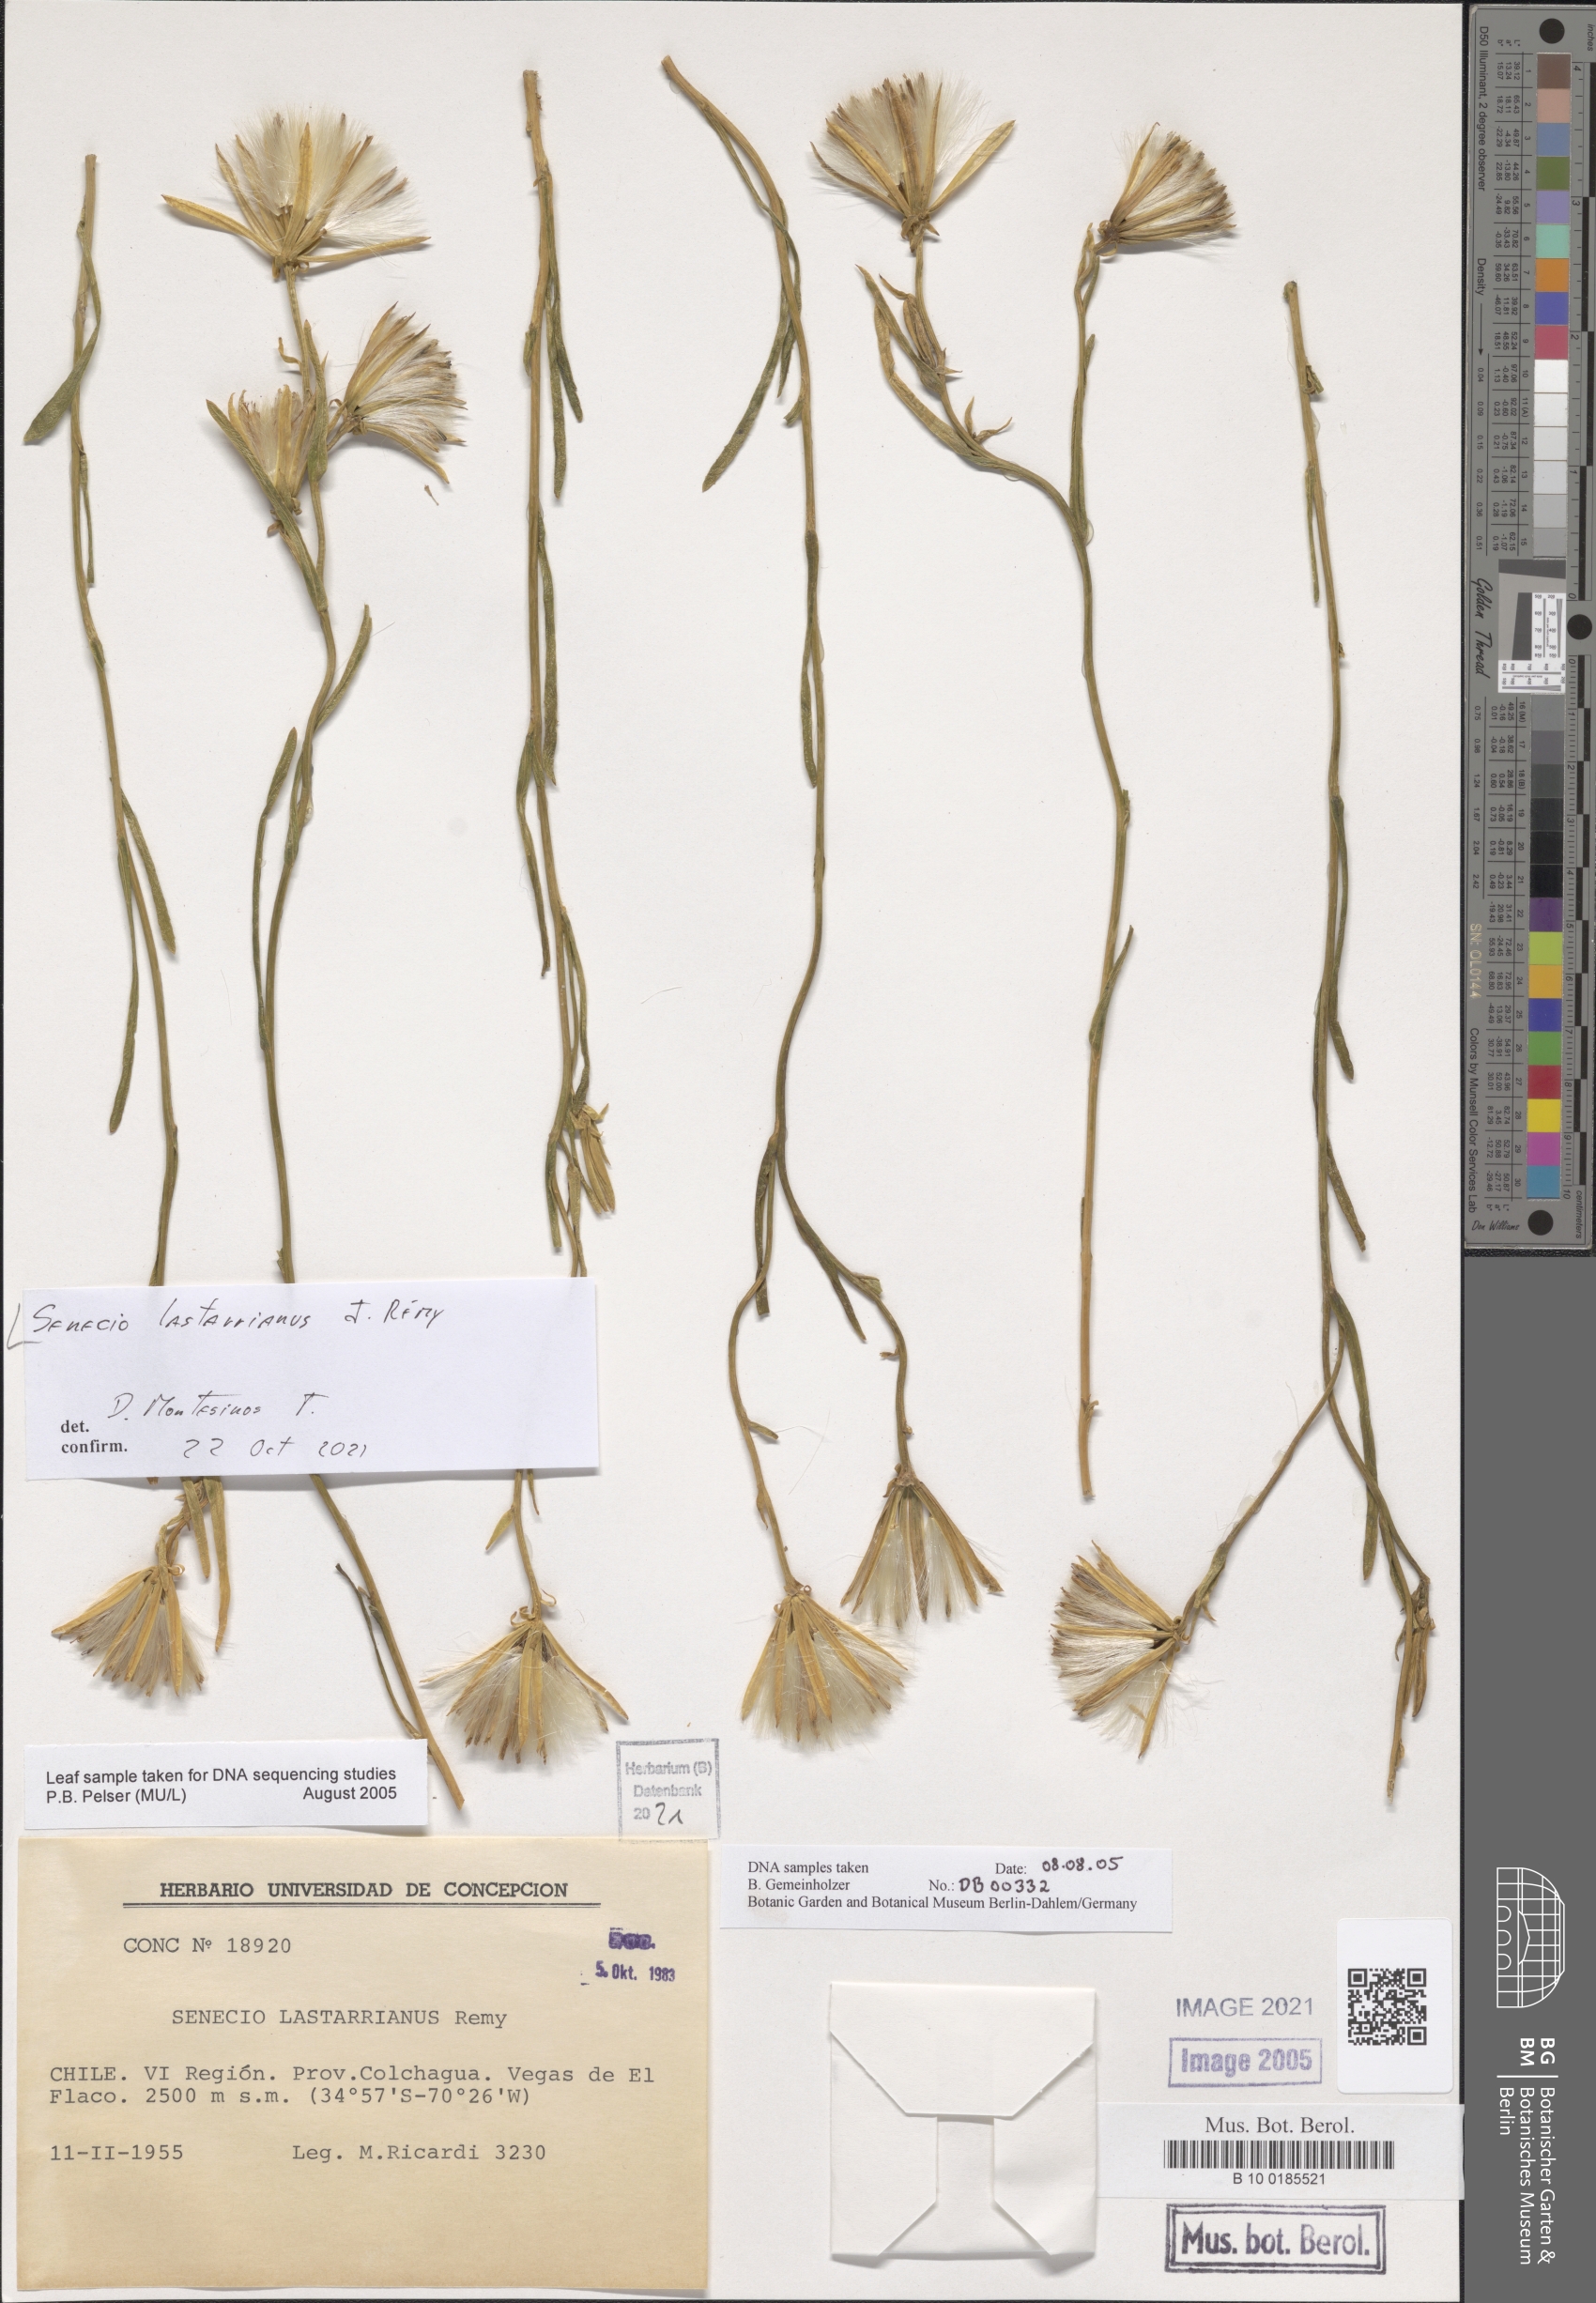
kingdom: Plantae
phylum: Tracheophyta
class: Magnoliopsida
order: Asterales
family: Asteraceae
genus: Senecio
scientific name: Senecio lastarrianus
